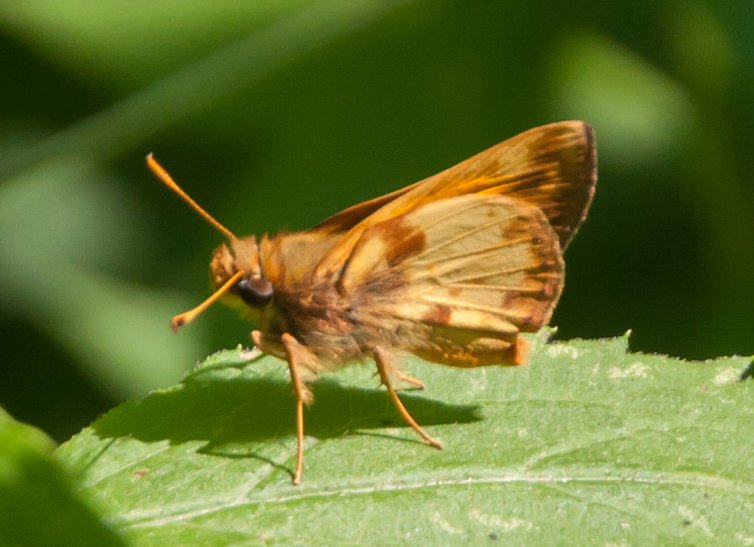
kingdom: Animalia
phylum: Arthropoda
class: Insecta
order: Lepidoptera
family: Hesperiidae
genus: Lon
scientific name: Lon zabulon
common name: Zabulon Skipper
